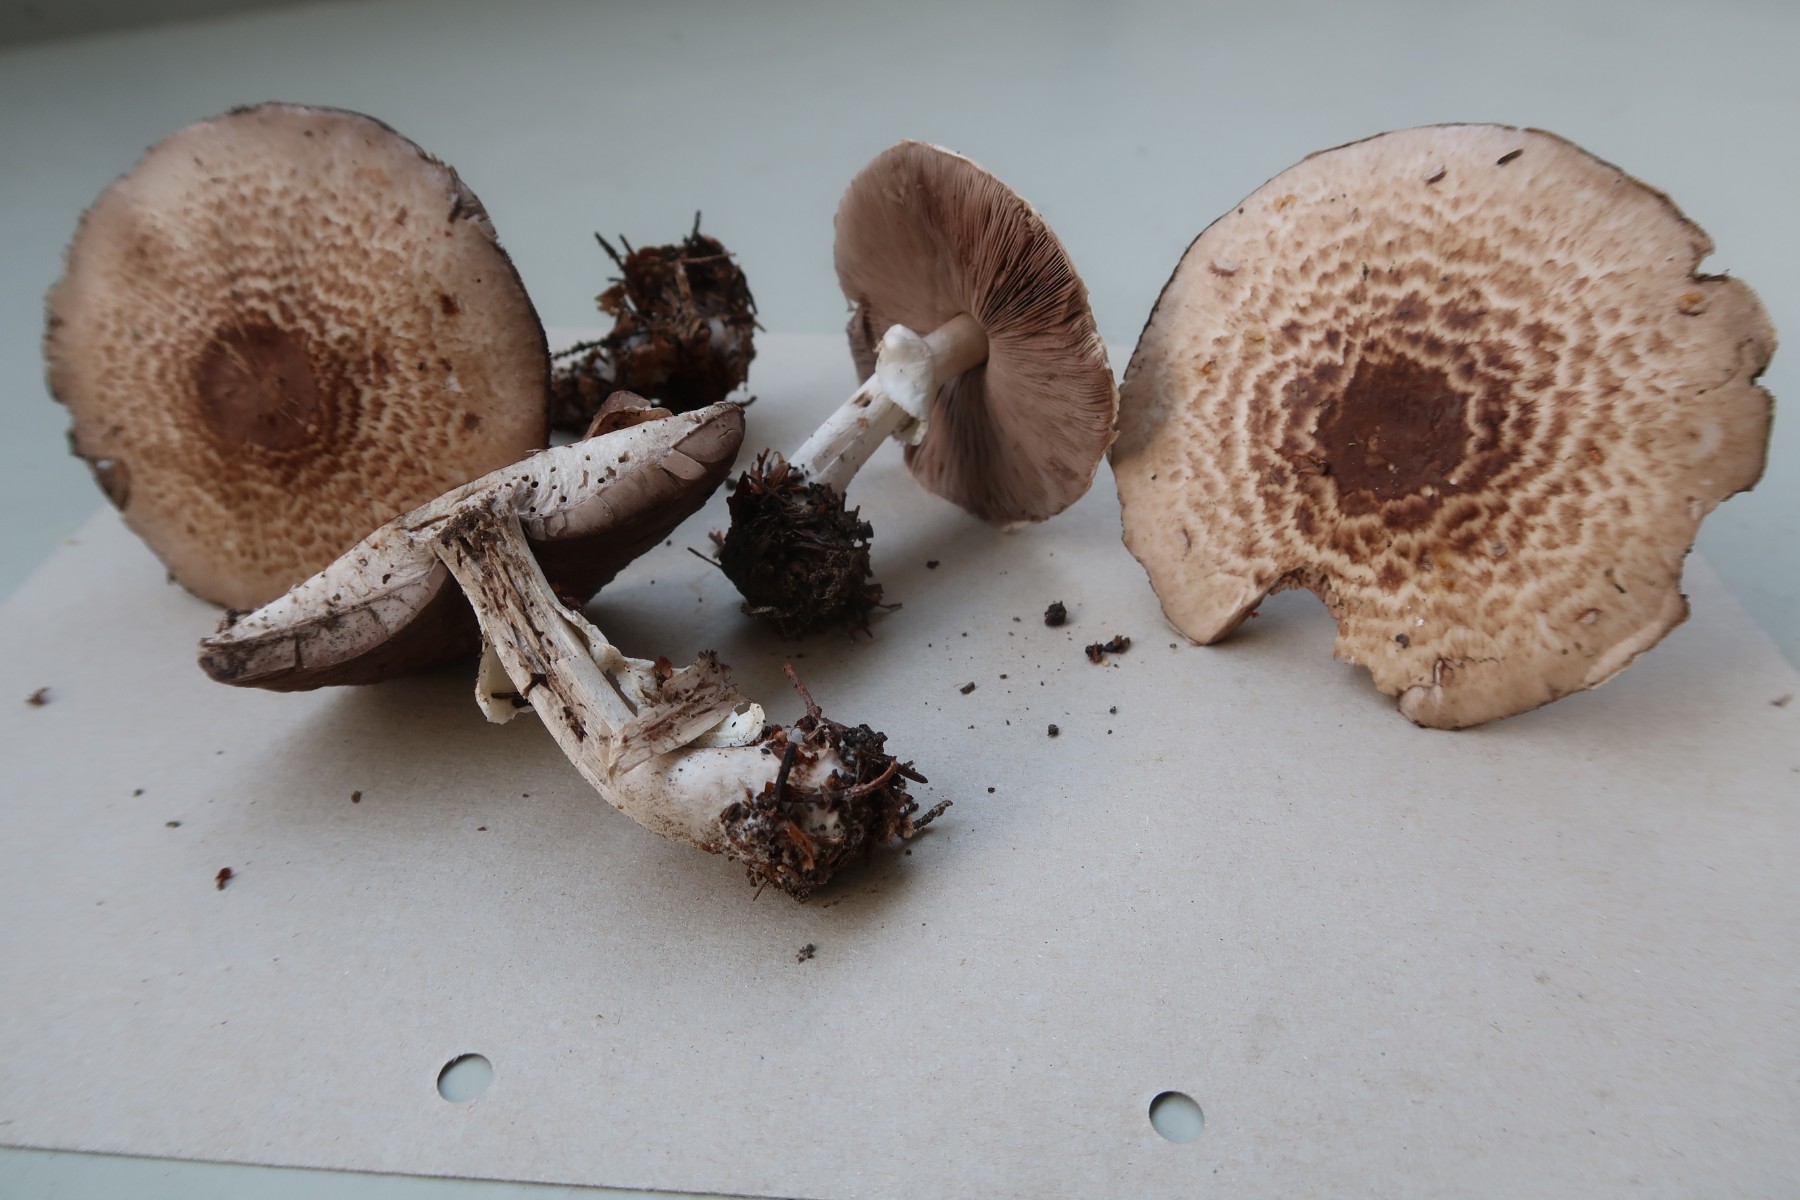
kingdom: Fungi
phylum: Basidiomycota
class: Agaricomycetes
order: Agaricales
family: Agaricaceae
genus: Agaricus
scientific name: Agaricus impudicus
